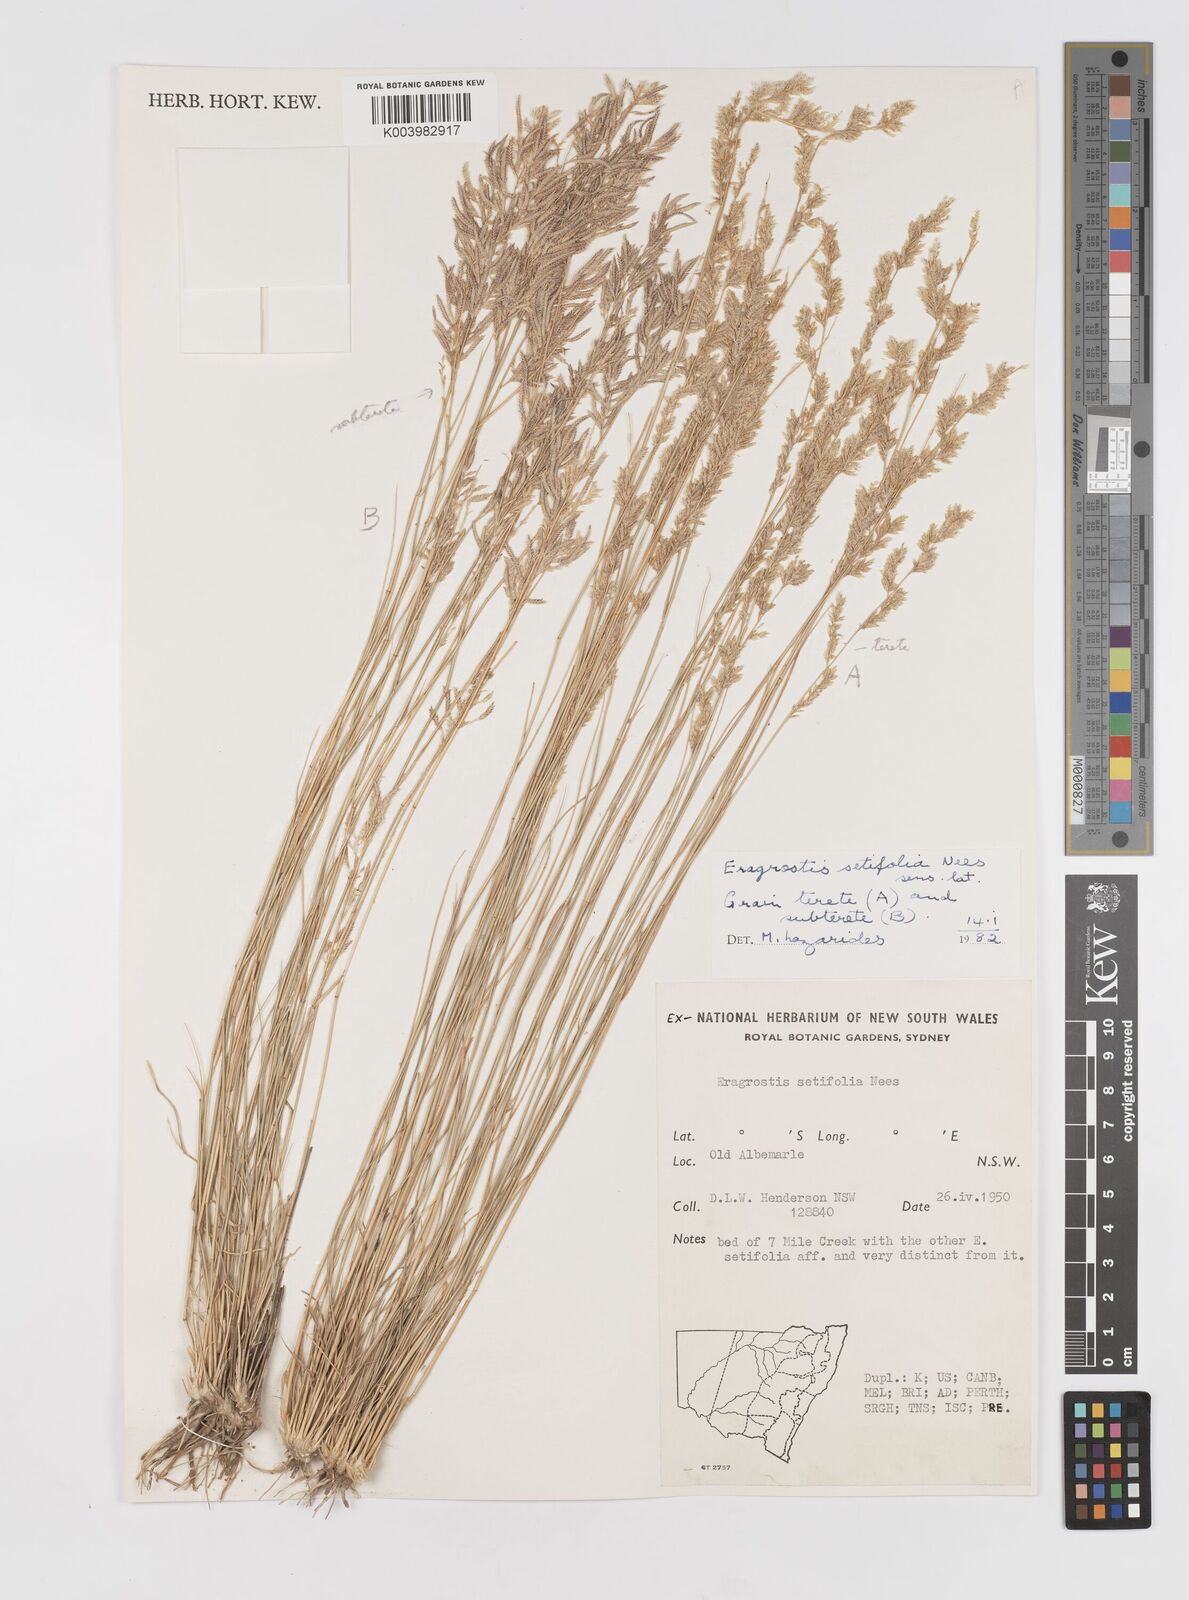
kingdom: Plantae
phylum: Tracheophyta
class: Liliopsida
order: Poales
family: Poaceae
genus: Eragrostis
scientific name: Eragrostis setifolia
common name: Bristleleaf lovegrass
